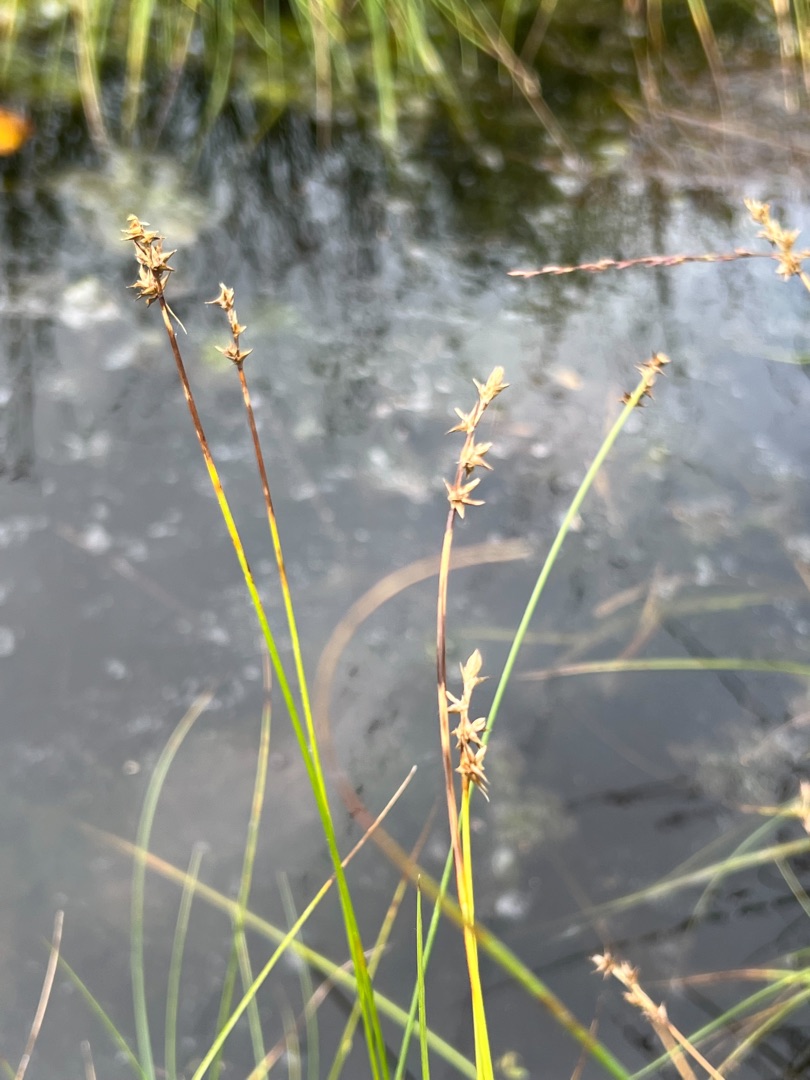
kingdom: Plantae
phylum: Tracheophyta
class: Liliopsida
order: Poales
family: Cyperaceae
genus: Carex
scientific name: Carex echinata
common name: Stjerne-star
